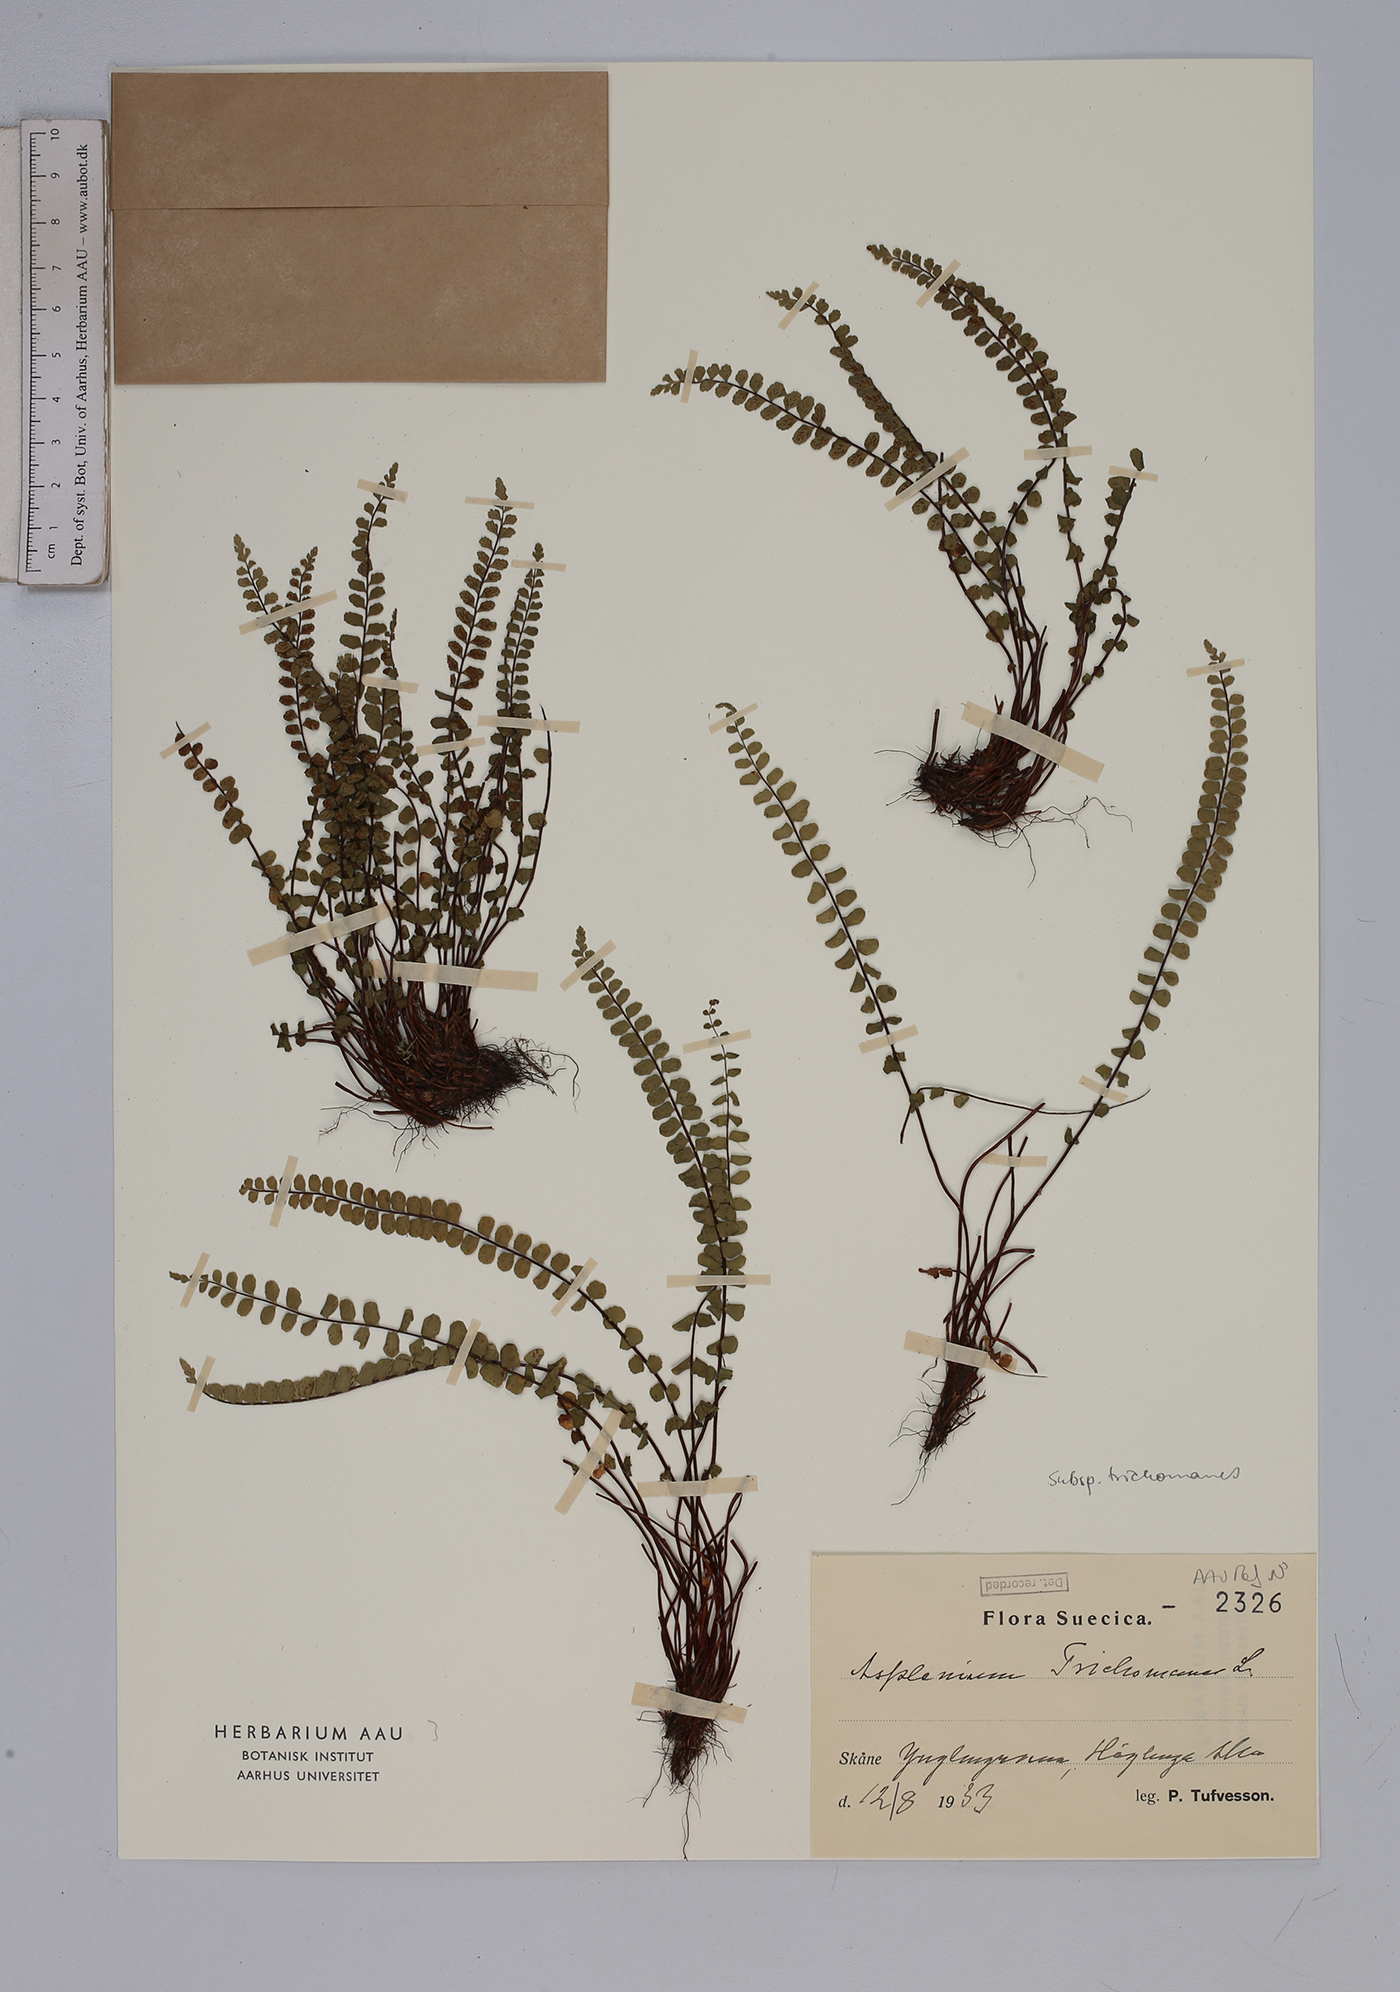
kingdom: Plantae
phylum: Tracheophyta
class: Polypodiopsida
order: Polypodiales
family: Aspleniaceae
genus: Asplenium
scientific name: Asplenium trichomanes
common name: Maidenhair spleenwort
